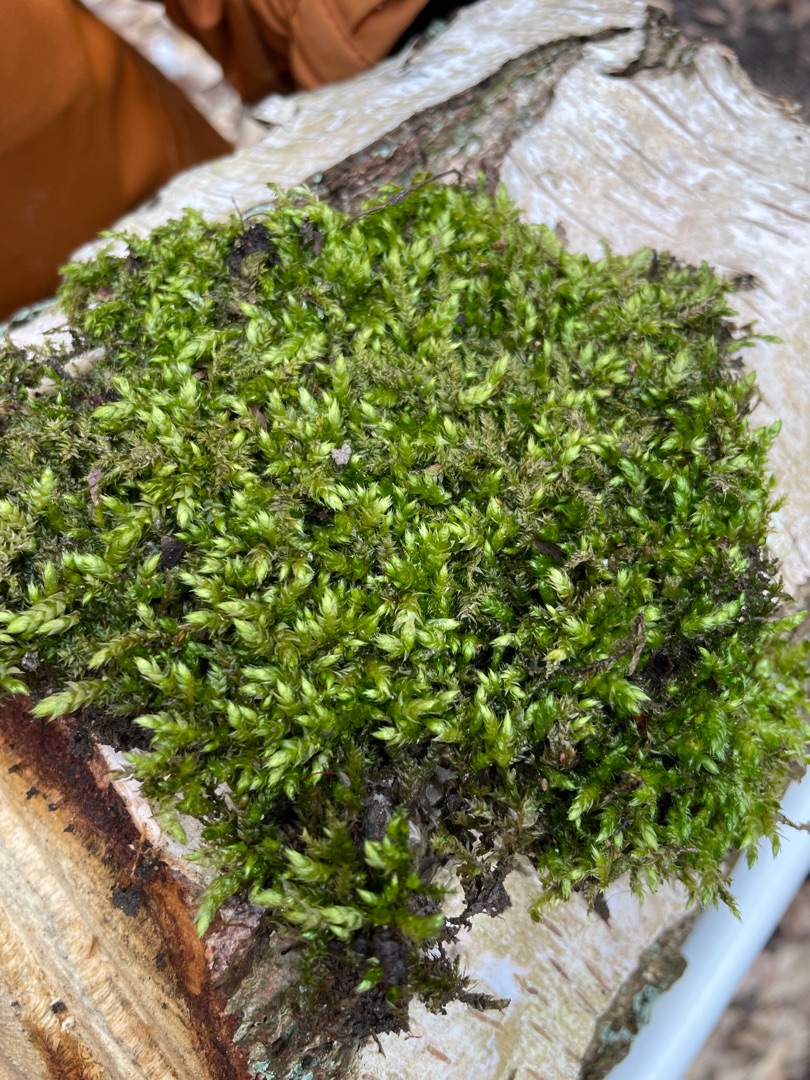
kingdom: Plantae
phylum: Bryophyta
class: Bryopsida
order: Hypnales
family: Brachytheciaceae
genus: Brachythecium
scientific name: Brachythecium rutabulum
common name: Almindelig kortkapsel
